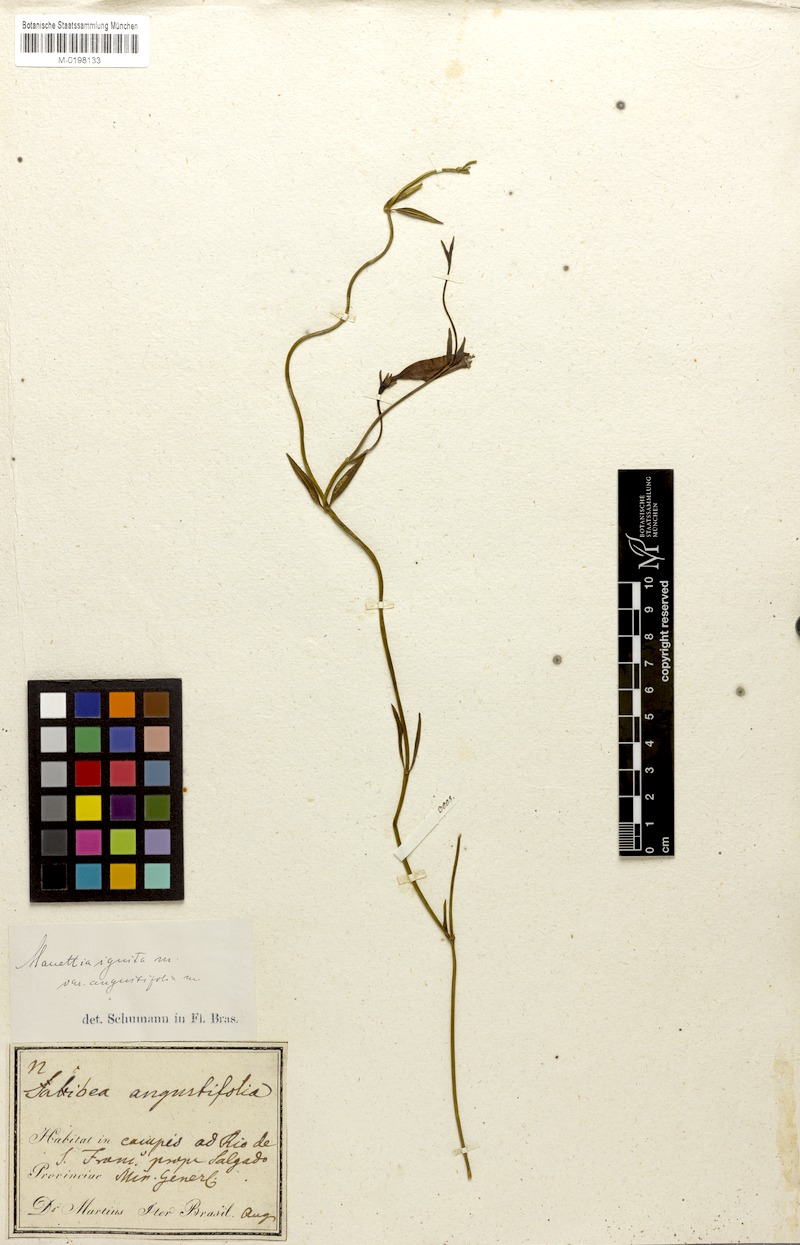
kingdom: Plantae
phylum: Tracheophyta
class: Magnoliopsida
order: Gentianales
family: Rubiaceae
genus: Manettia
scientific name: Manettia cordifolia
